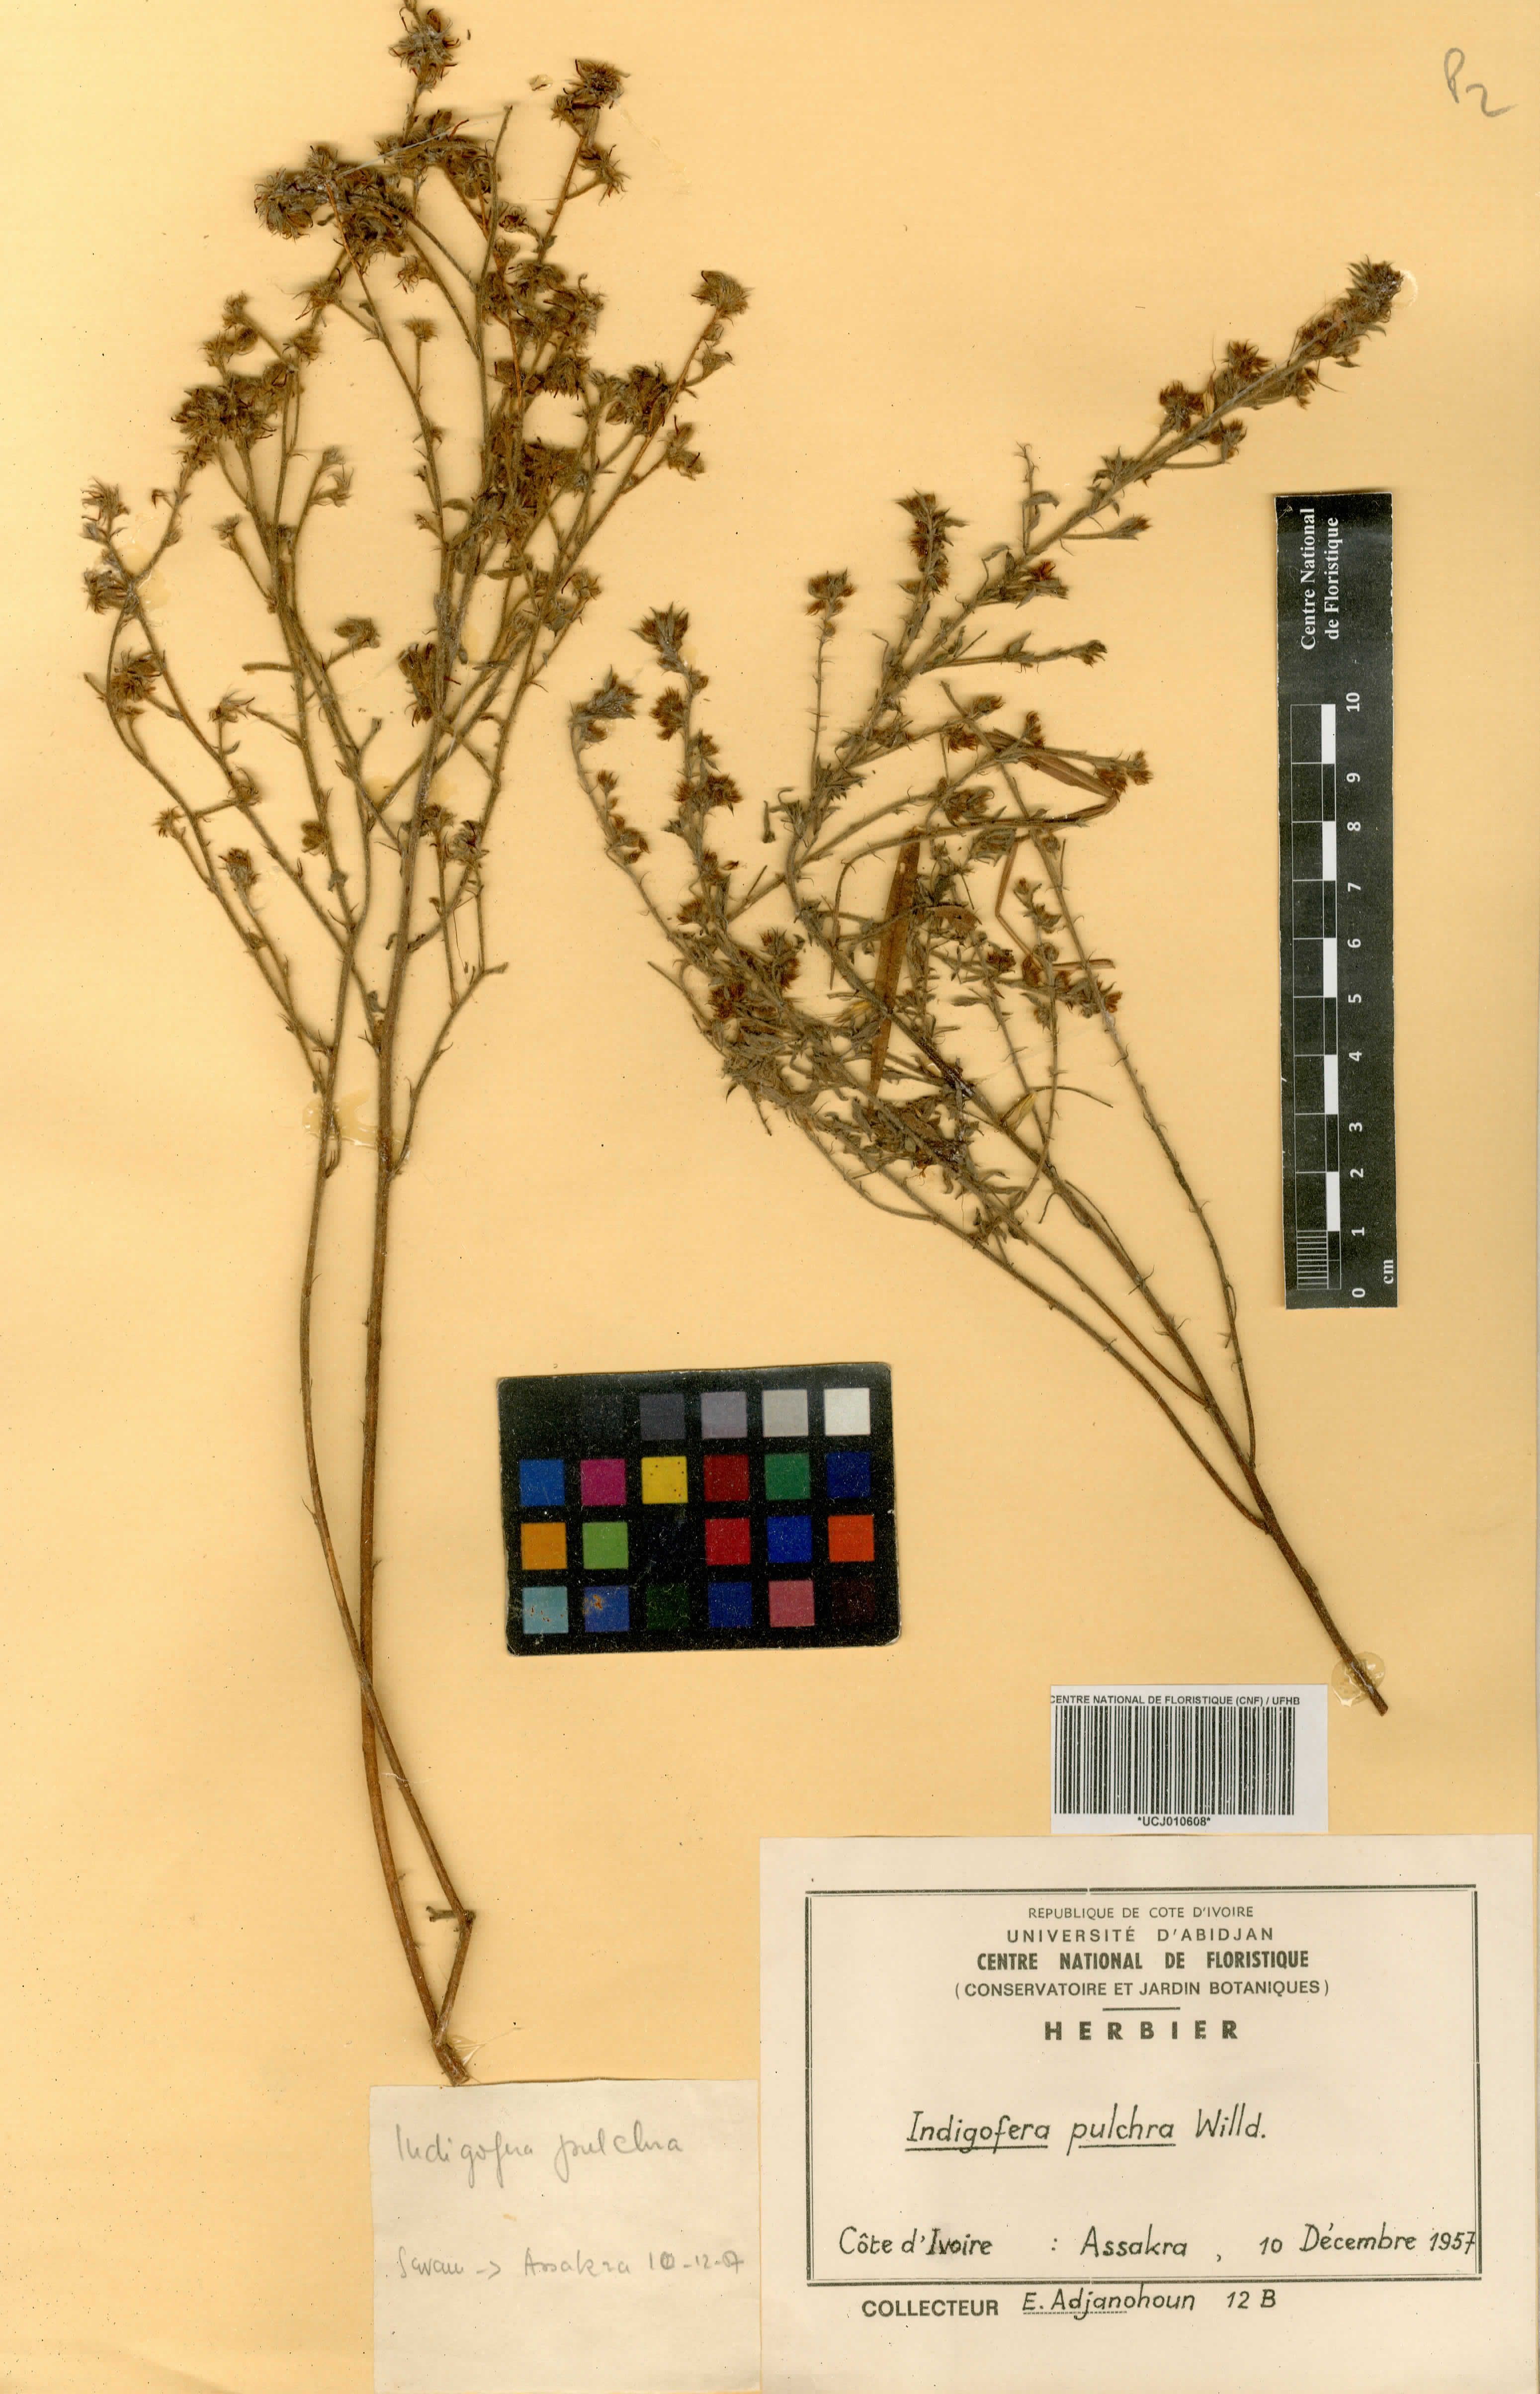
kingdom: Plantae
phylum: Tracheophyta
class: Magnoliopsida
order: Fabales
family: Fabaceae
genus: Indigofera
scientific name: Indigofera pulchra
